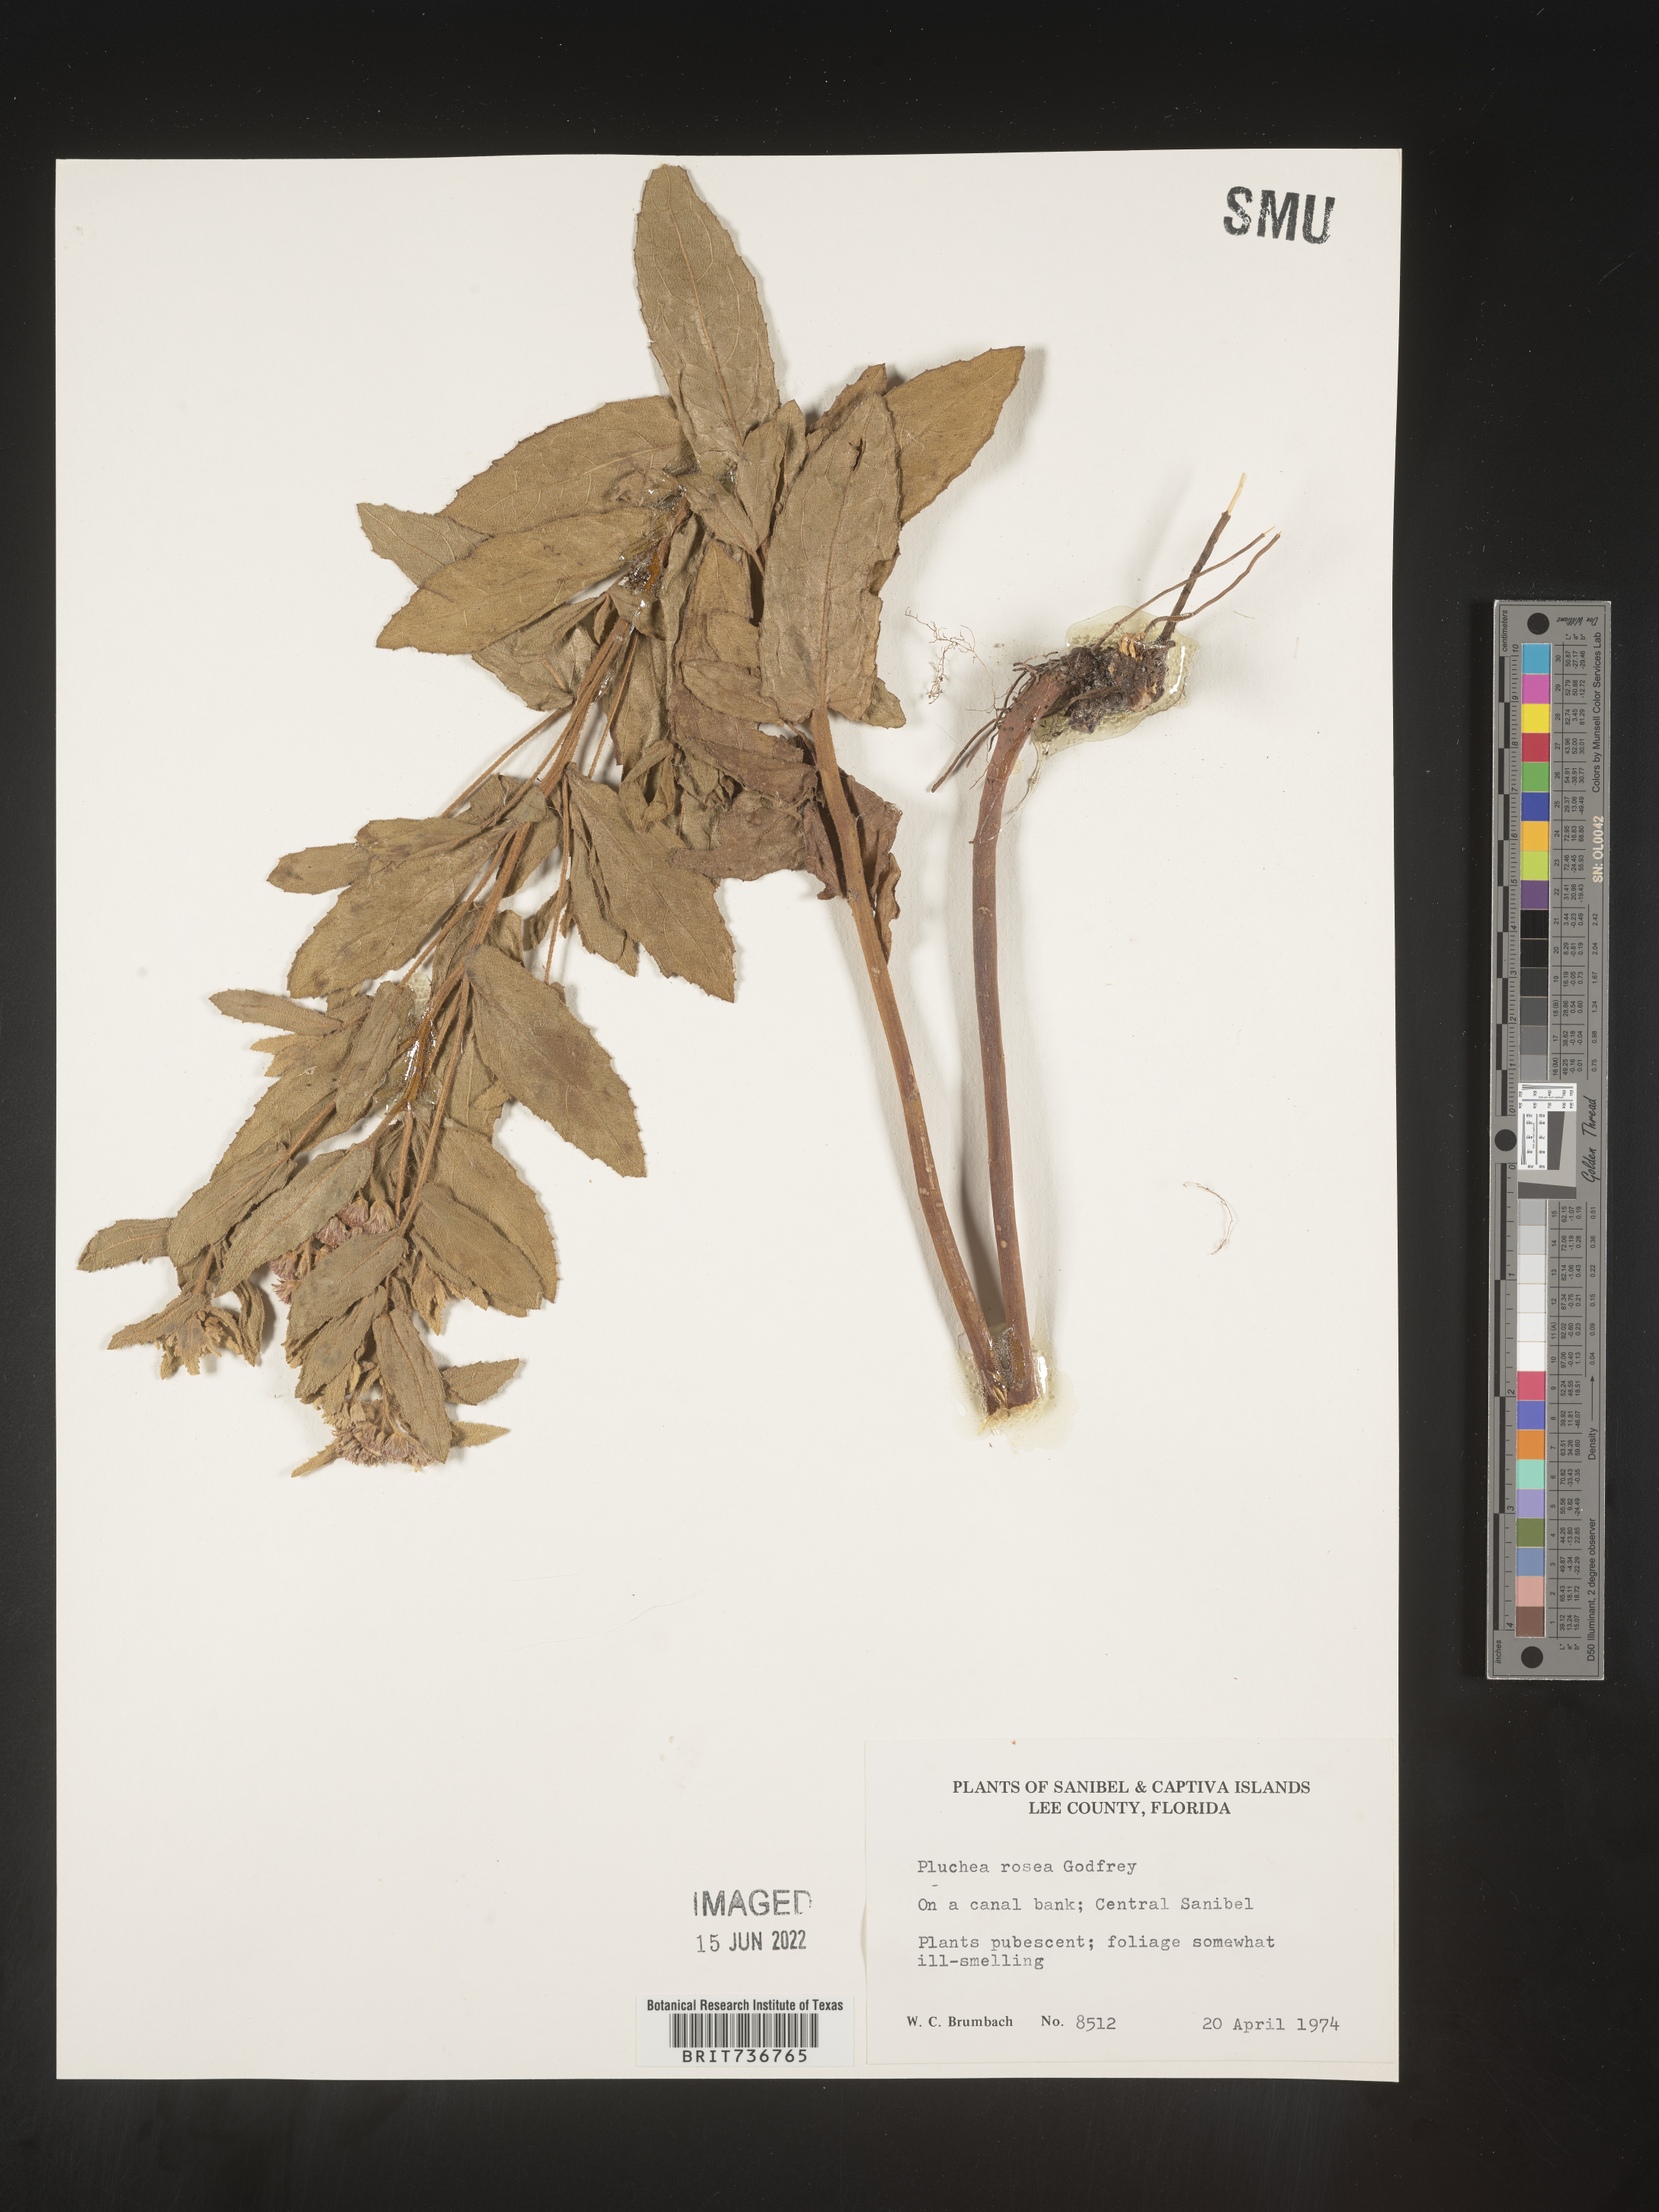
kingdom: Plantae
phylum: Tracheophyta
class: Magnoliopsida
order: Asterales
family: Asteraceae
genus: Pluchea
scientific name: Pluchea baccharis
